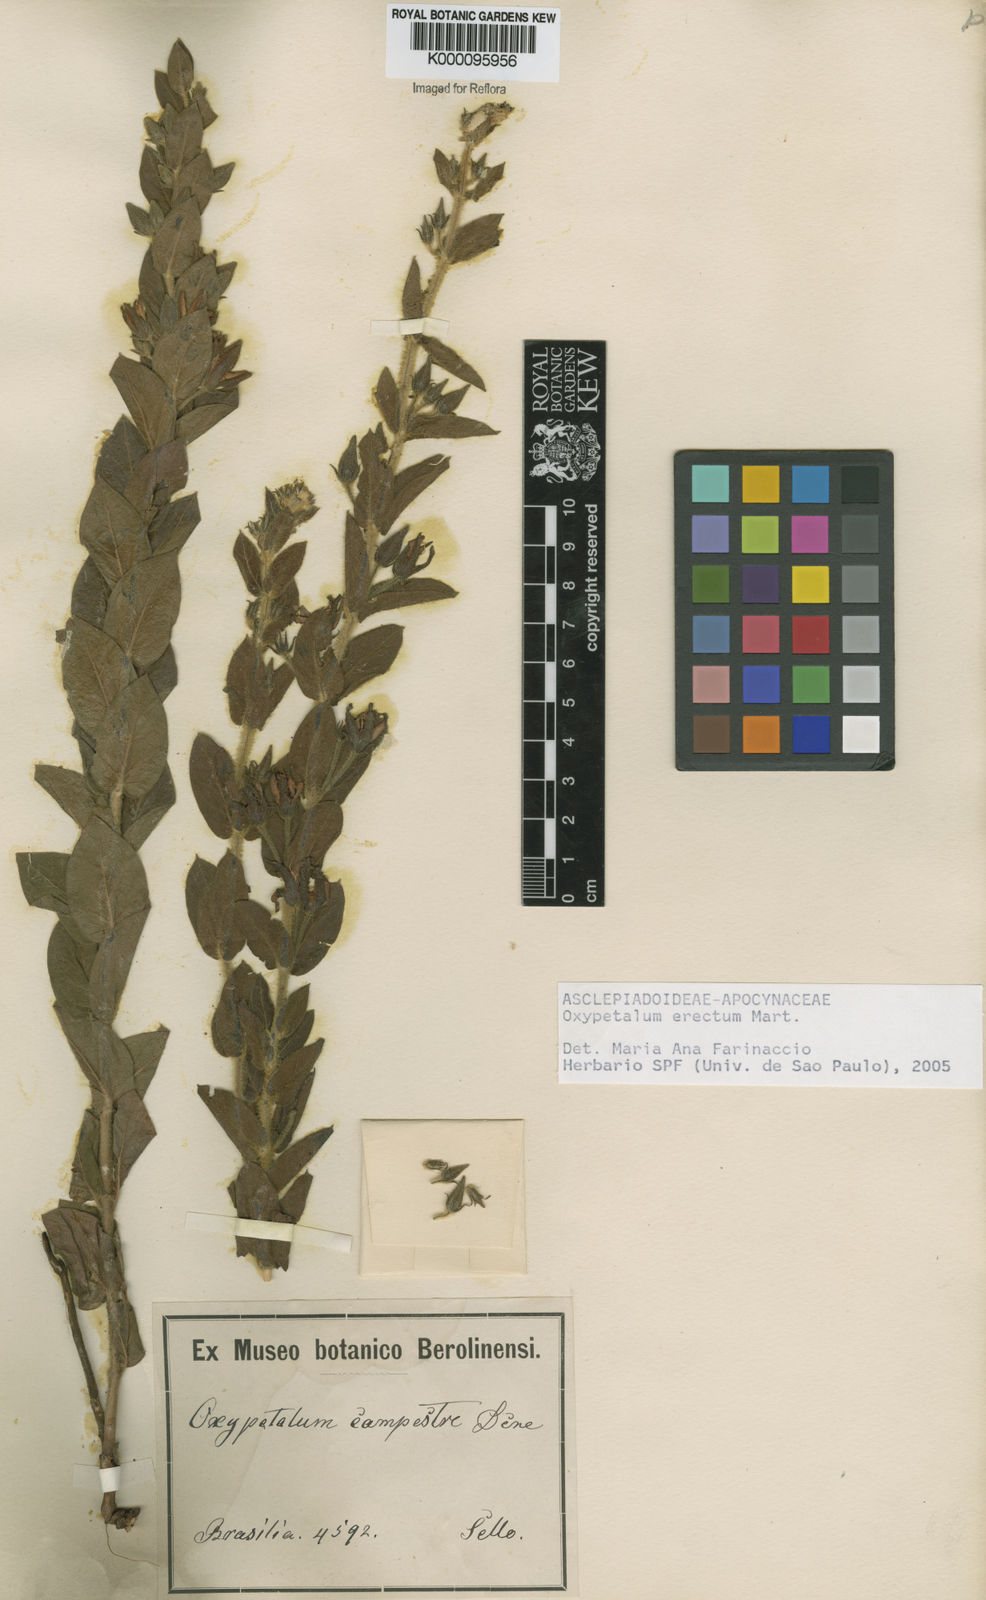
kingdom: Plantae
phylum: Tracheophyta
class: Magnoliopsida
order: Gentianales
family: Apocynaceae
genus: Oxypetalum
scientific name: Oxypetalum erectum
